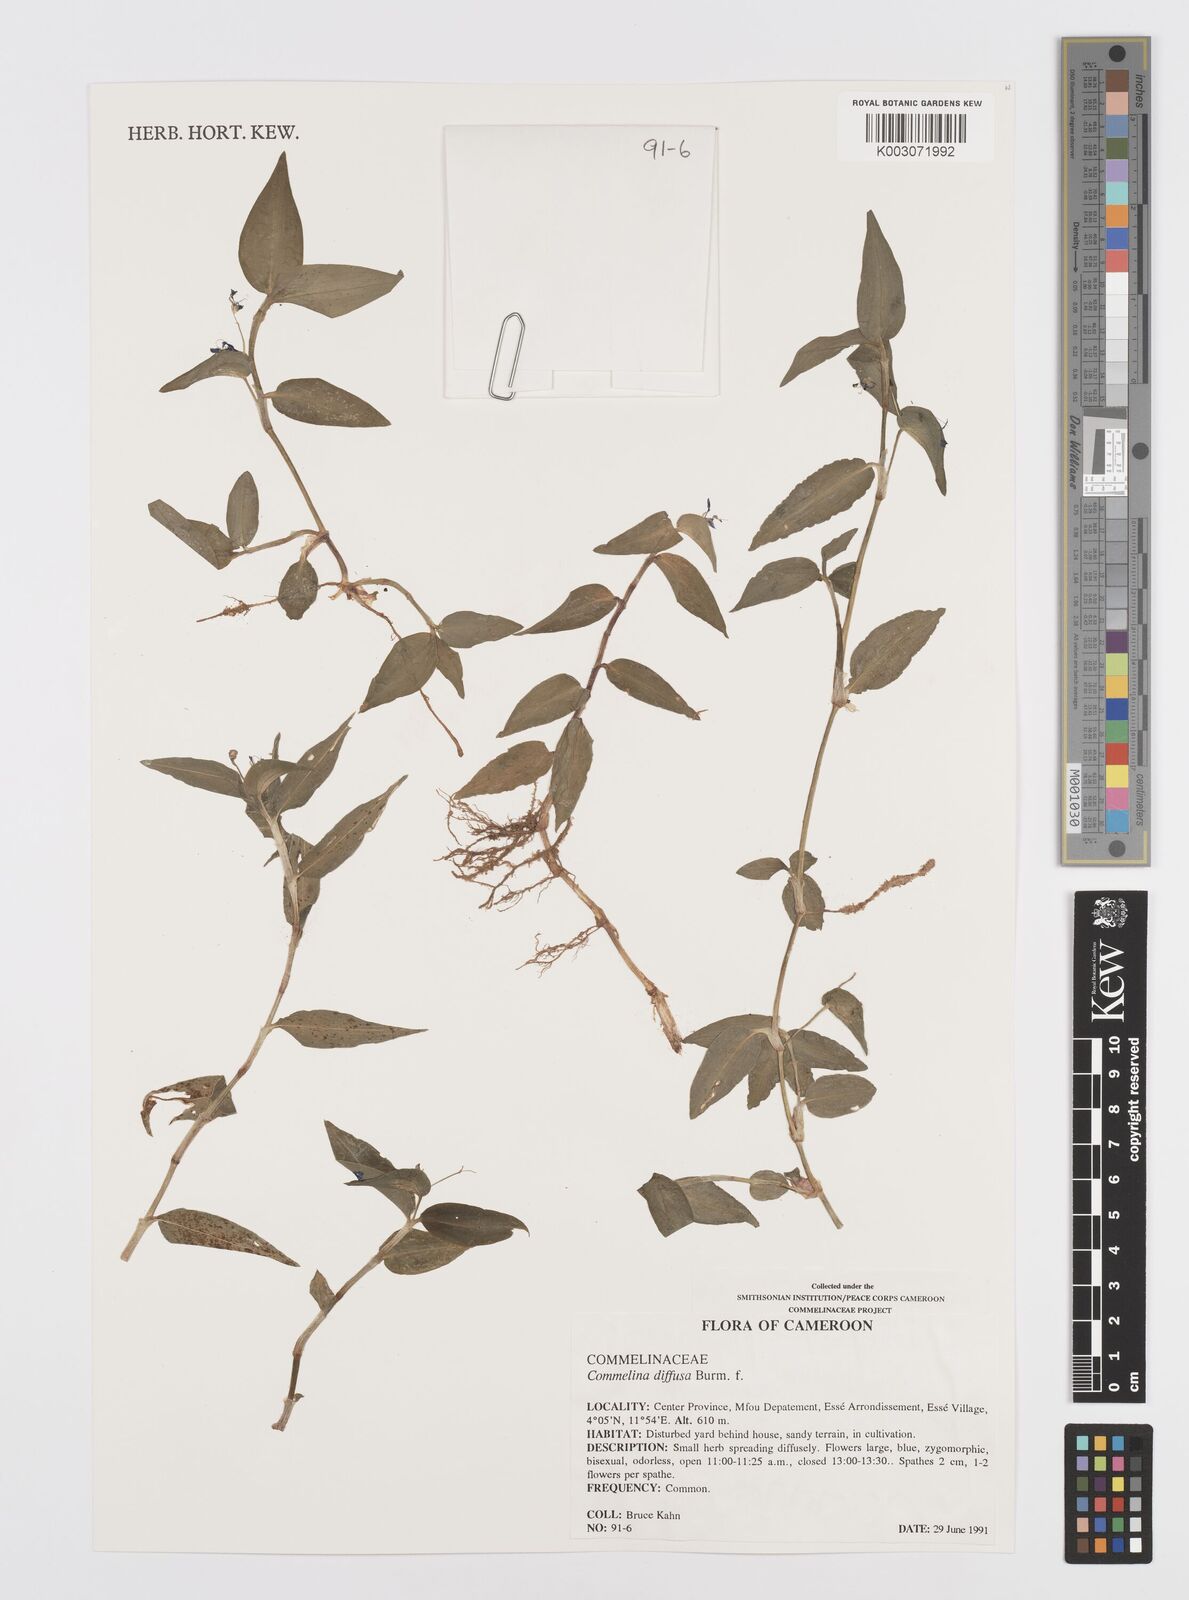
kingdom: Plantae
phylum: Tracheophyta
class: Liliopsida
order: Commelinales
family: Commelinaceae
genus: Commelina
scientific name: Commelina diffusa
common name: Climbing dayflower
